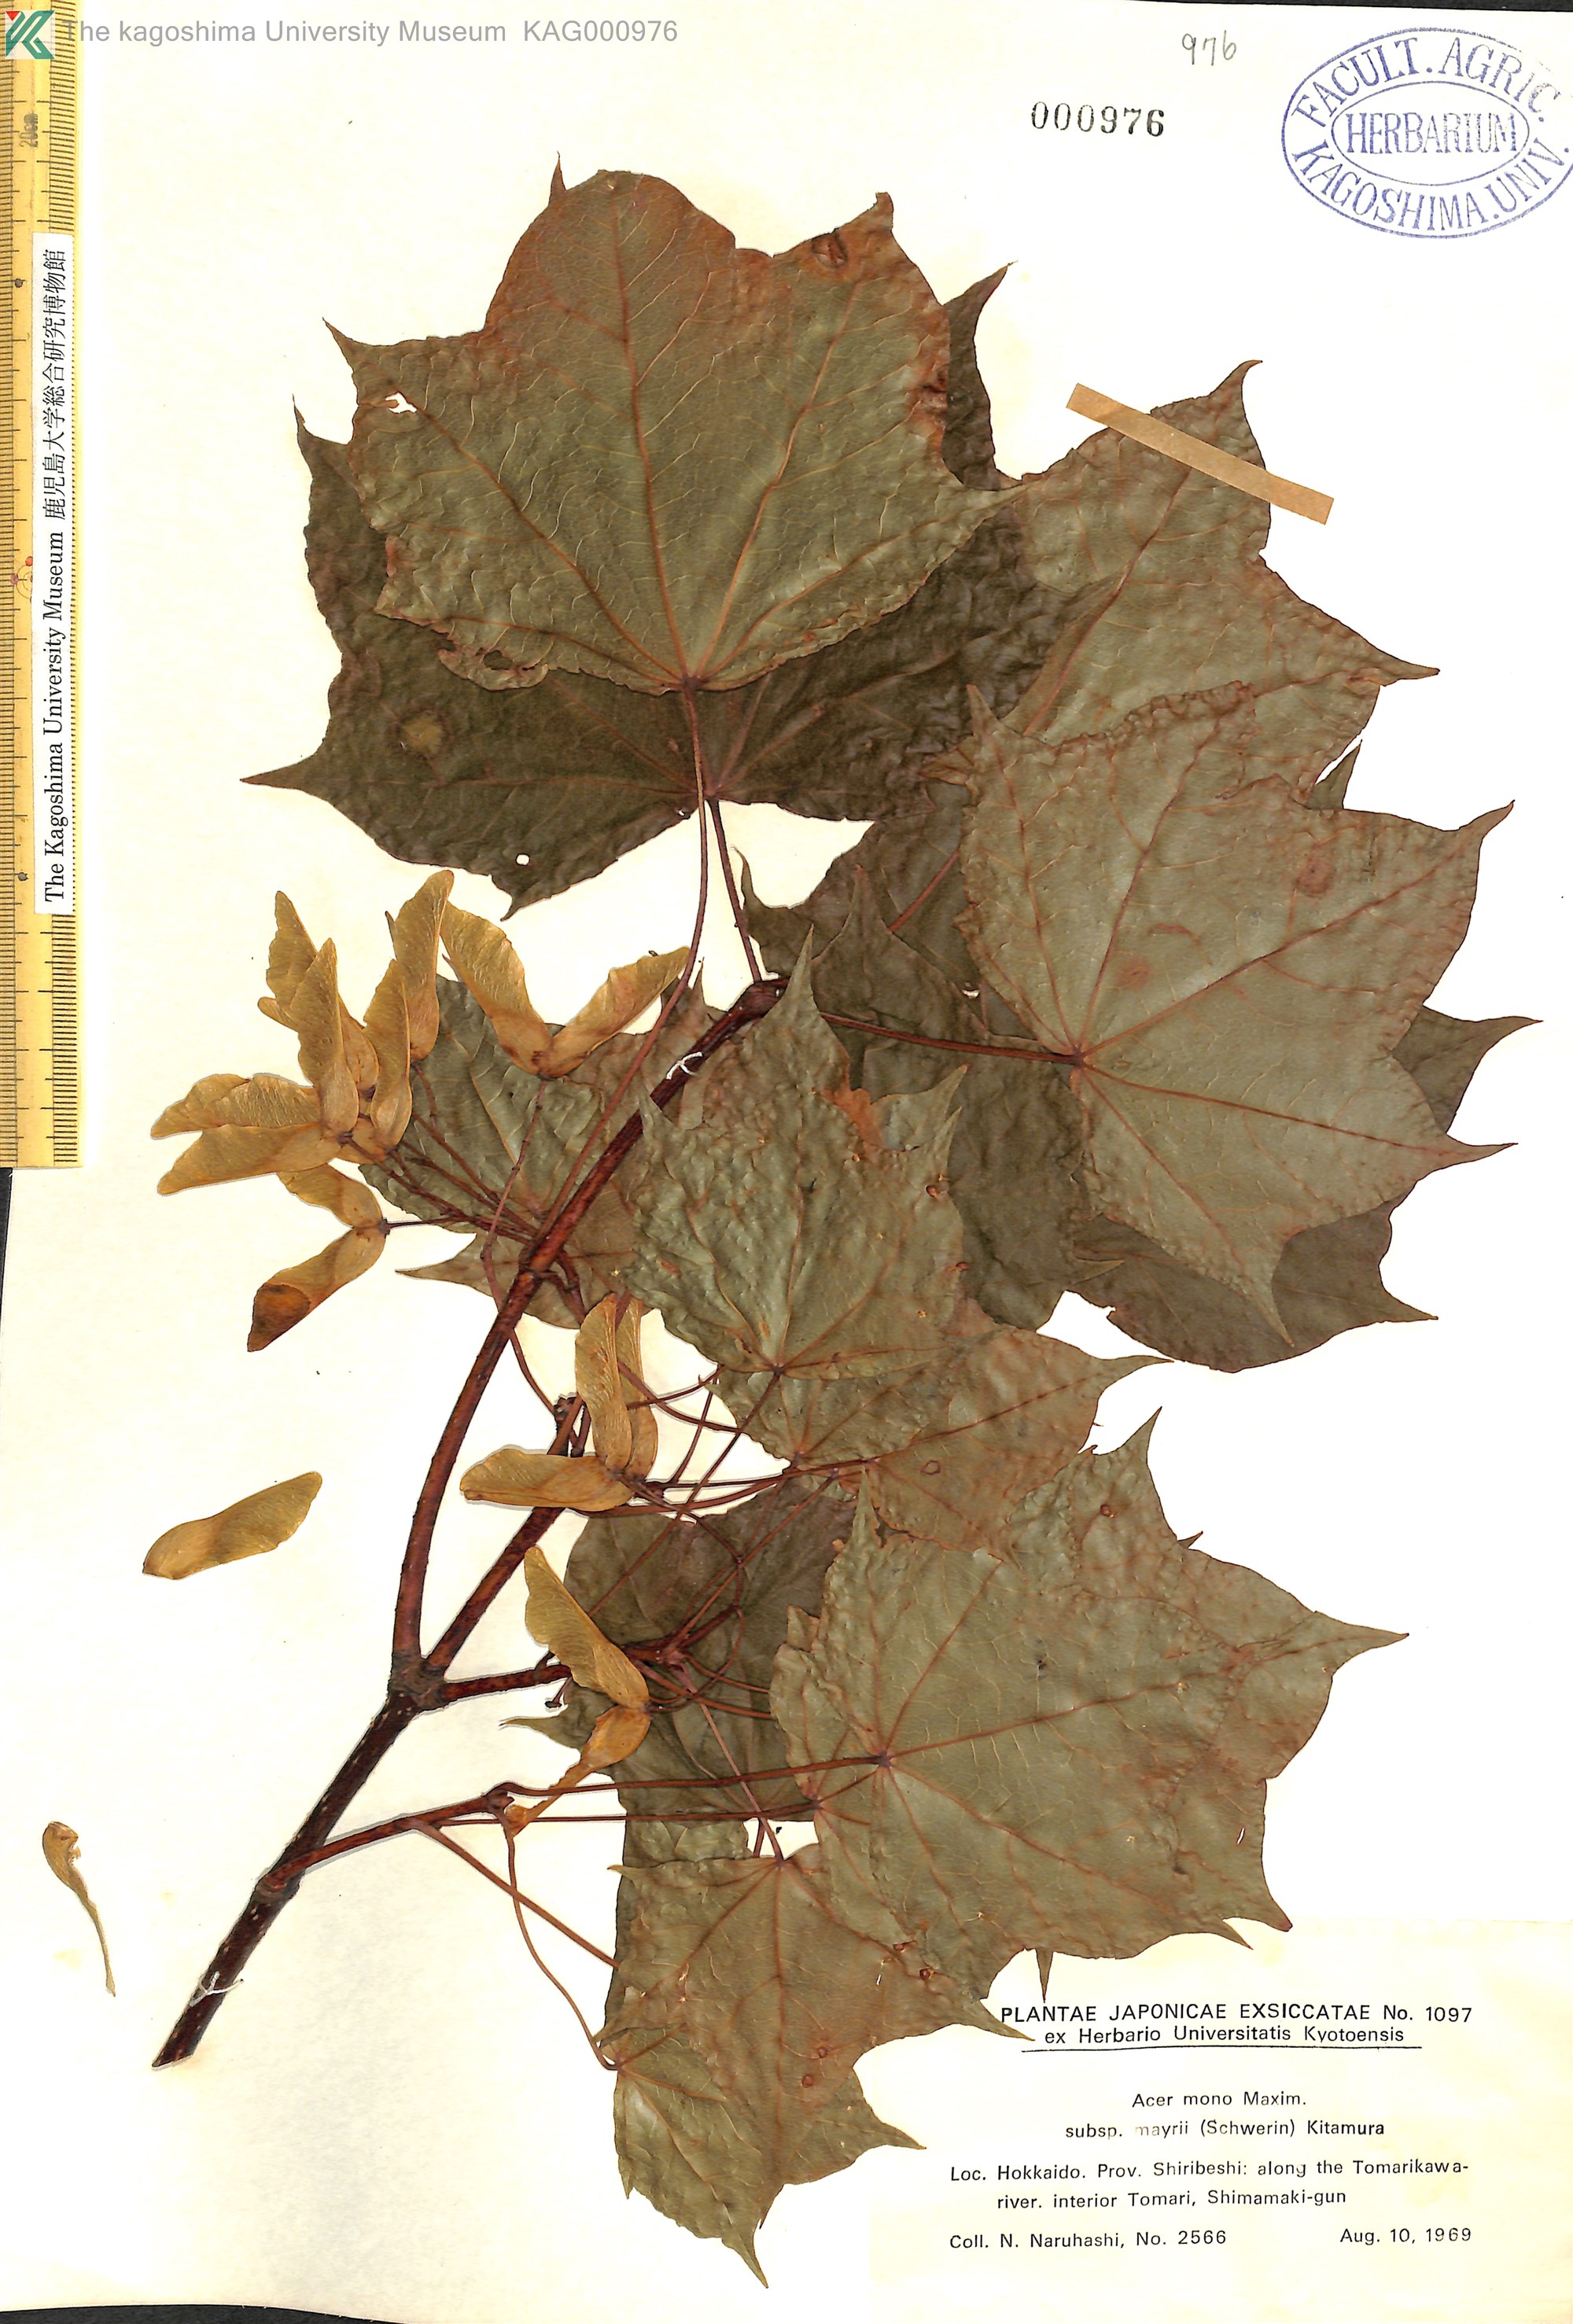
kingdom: Plantae
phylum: Tracheophyta
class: Magnoliopsida
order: Sapindales
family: Sapindaceae
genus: Acer
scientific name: Acer pictum
